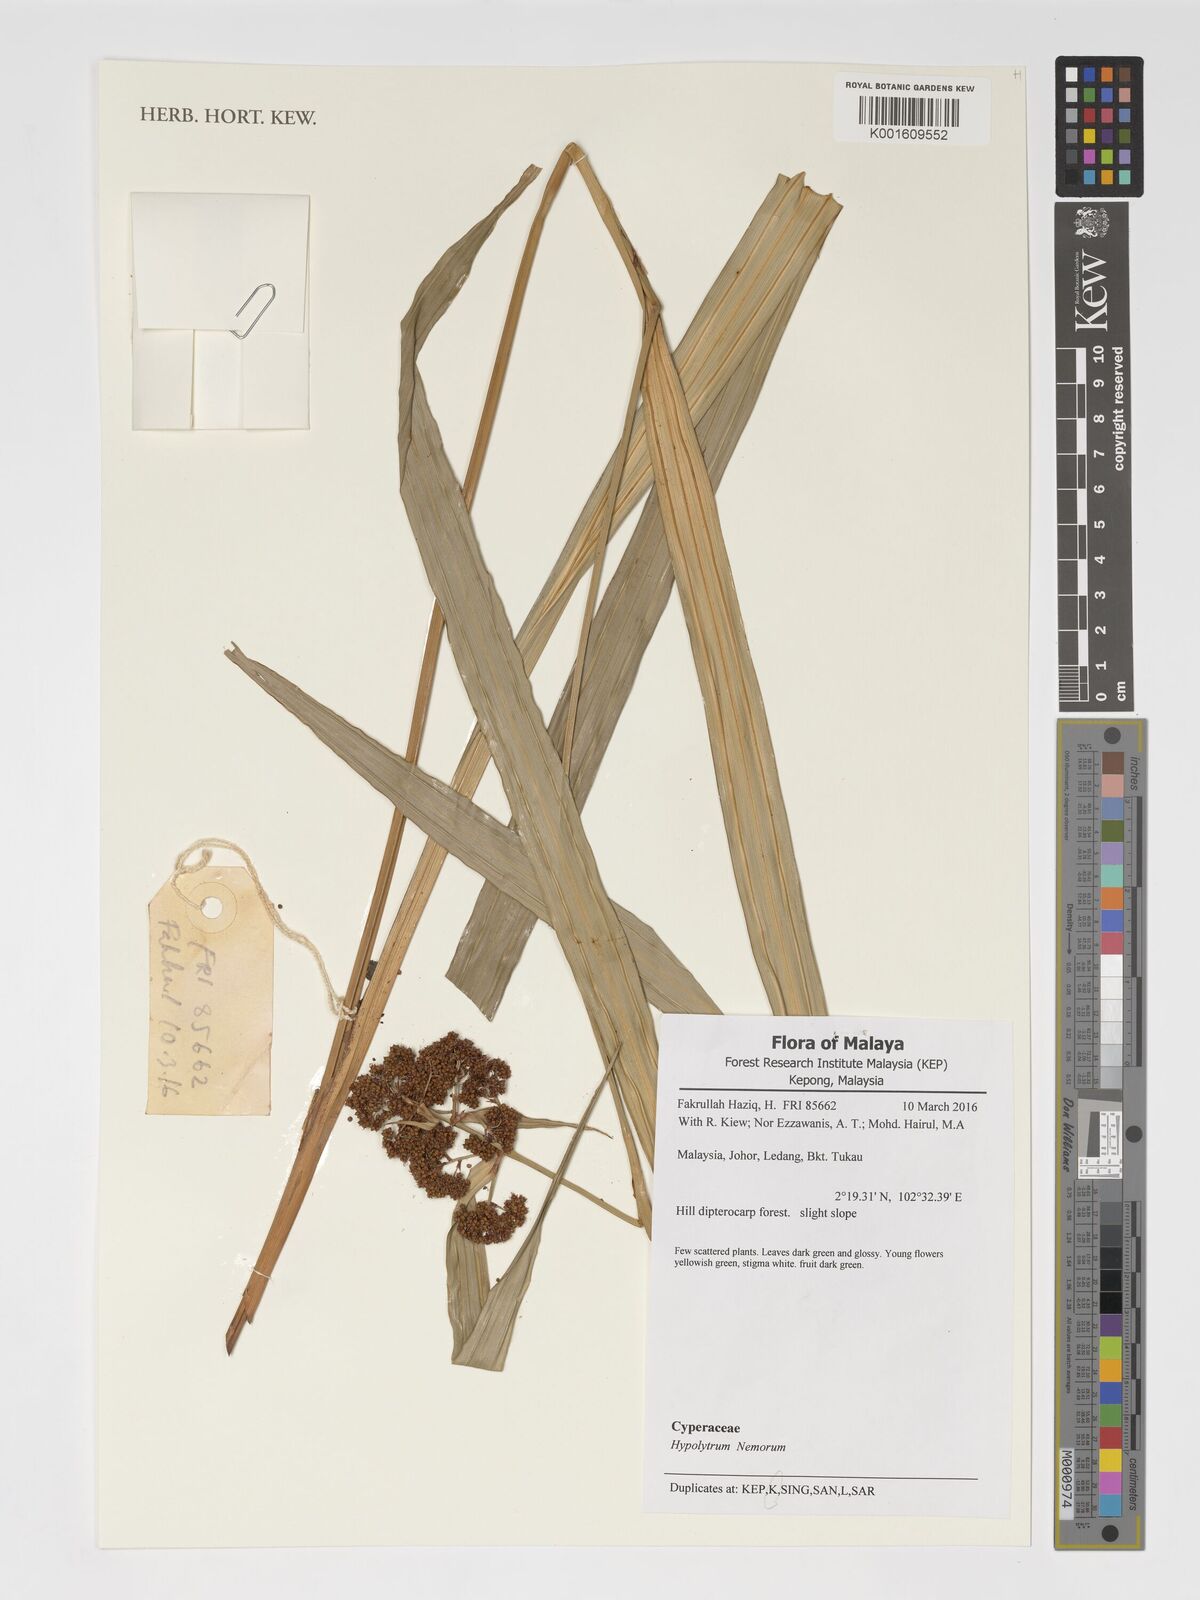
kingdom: Plantae
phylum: Tracheophyta
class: Liliopsida
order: Poales
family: Cyperaceae
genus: Hypolytrum
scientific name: Hypolytrum nemorum
